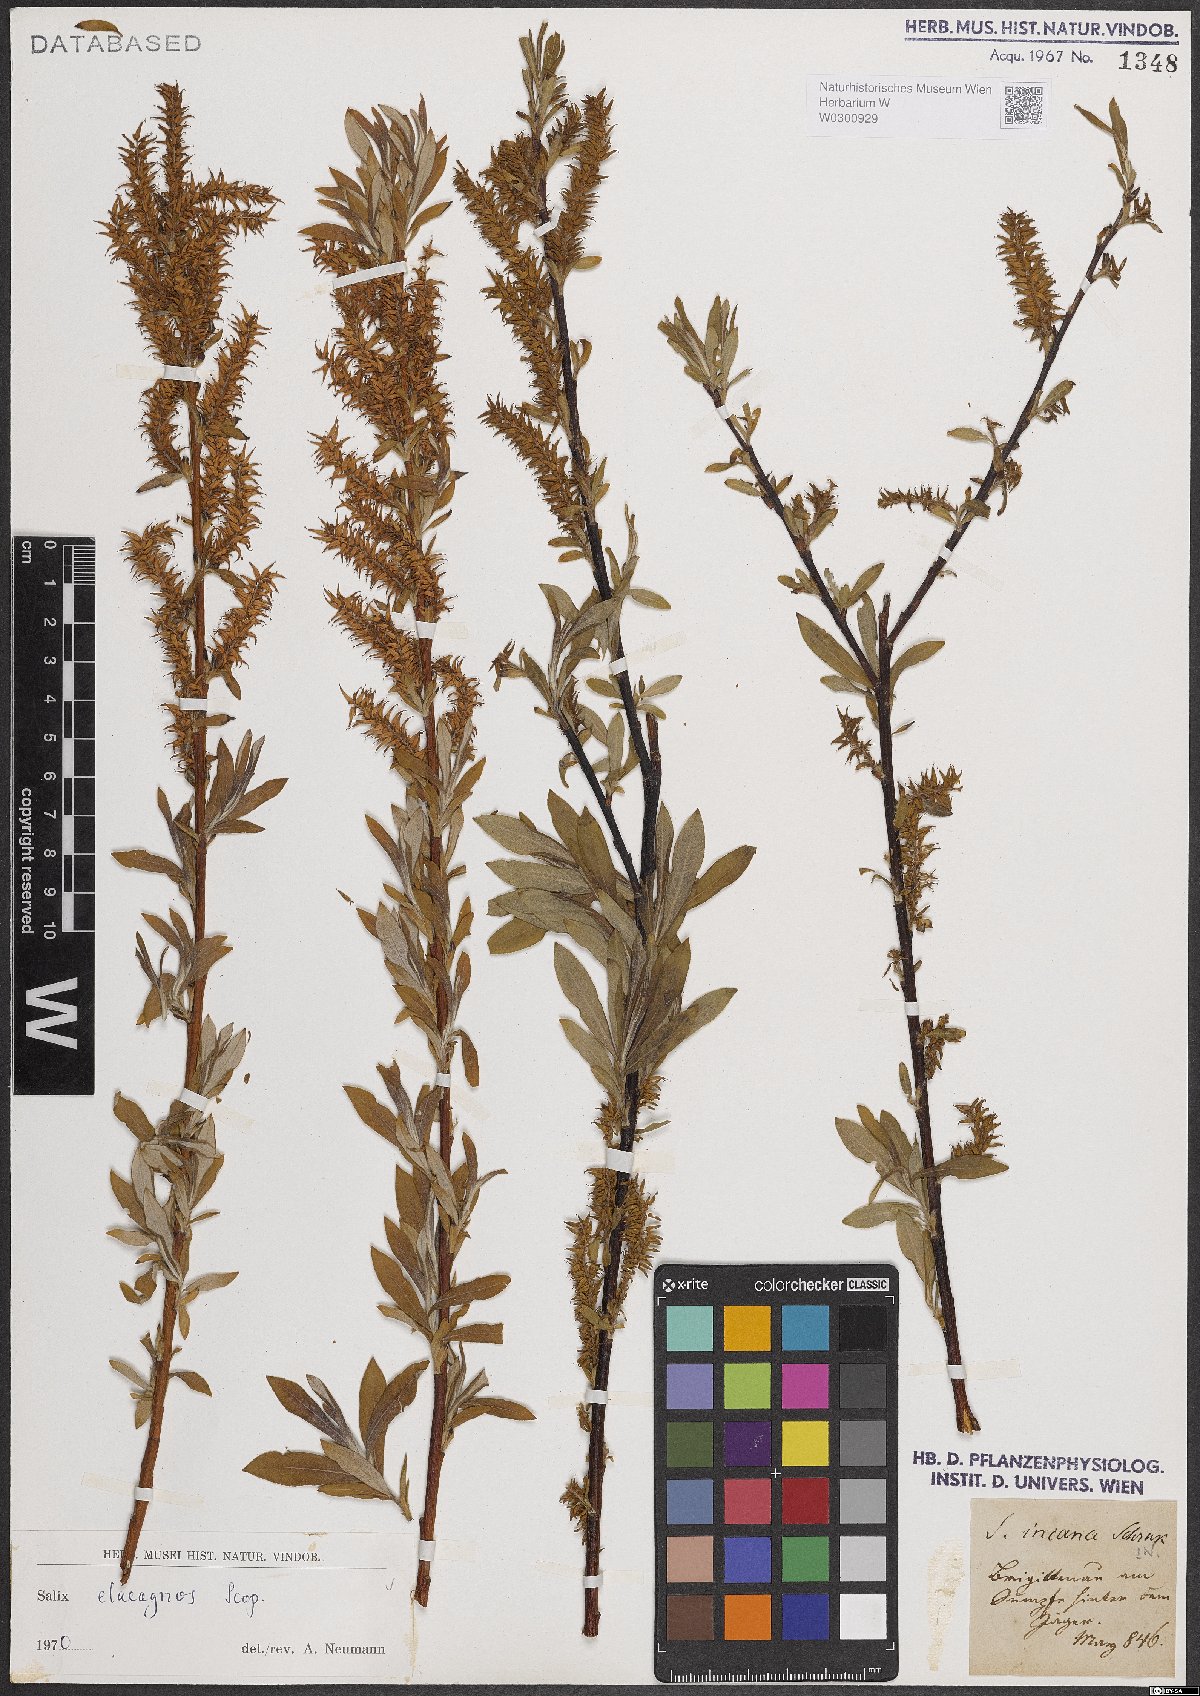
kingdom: Plantae
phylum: Tracheophyta
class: Magnoliopsida
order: Malpighiales
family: Salicaceae
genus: Salix
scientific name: Salix eleagnos
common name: Elaeagnus willow
